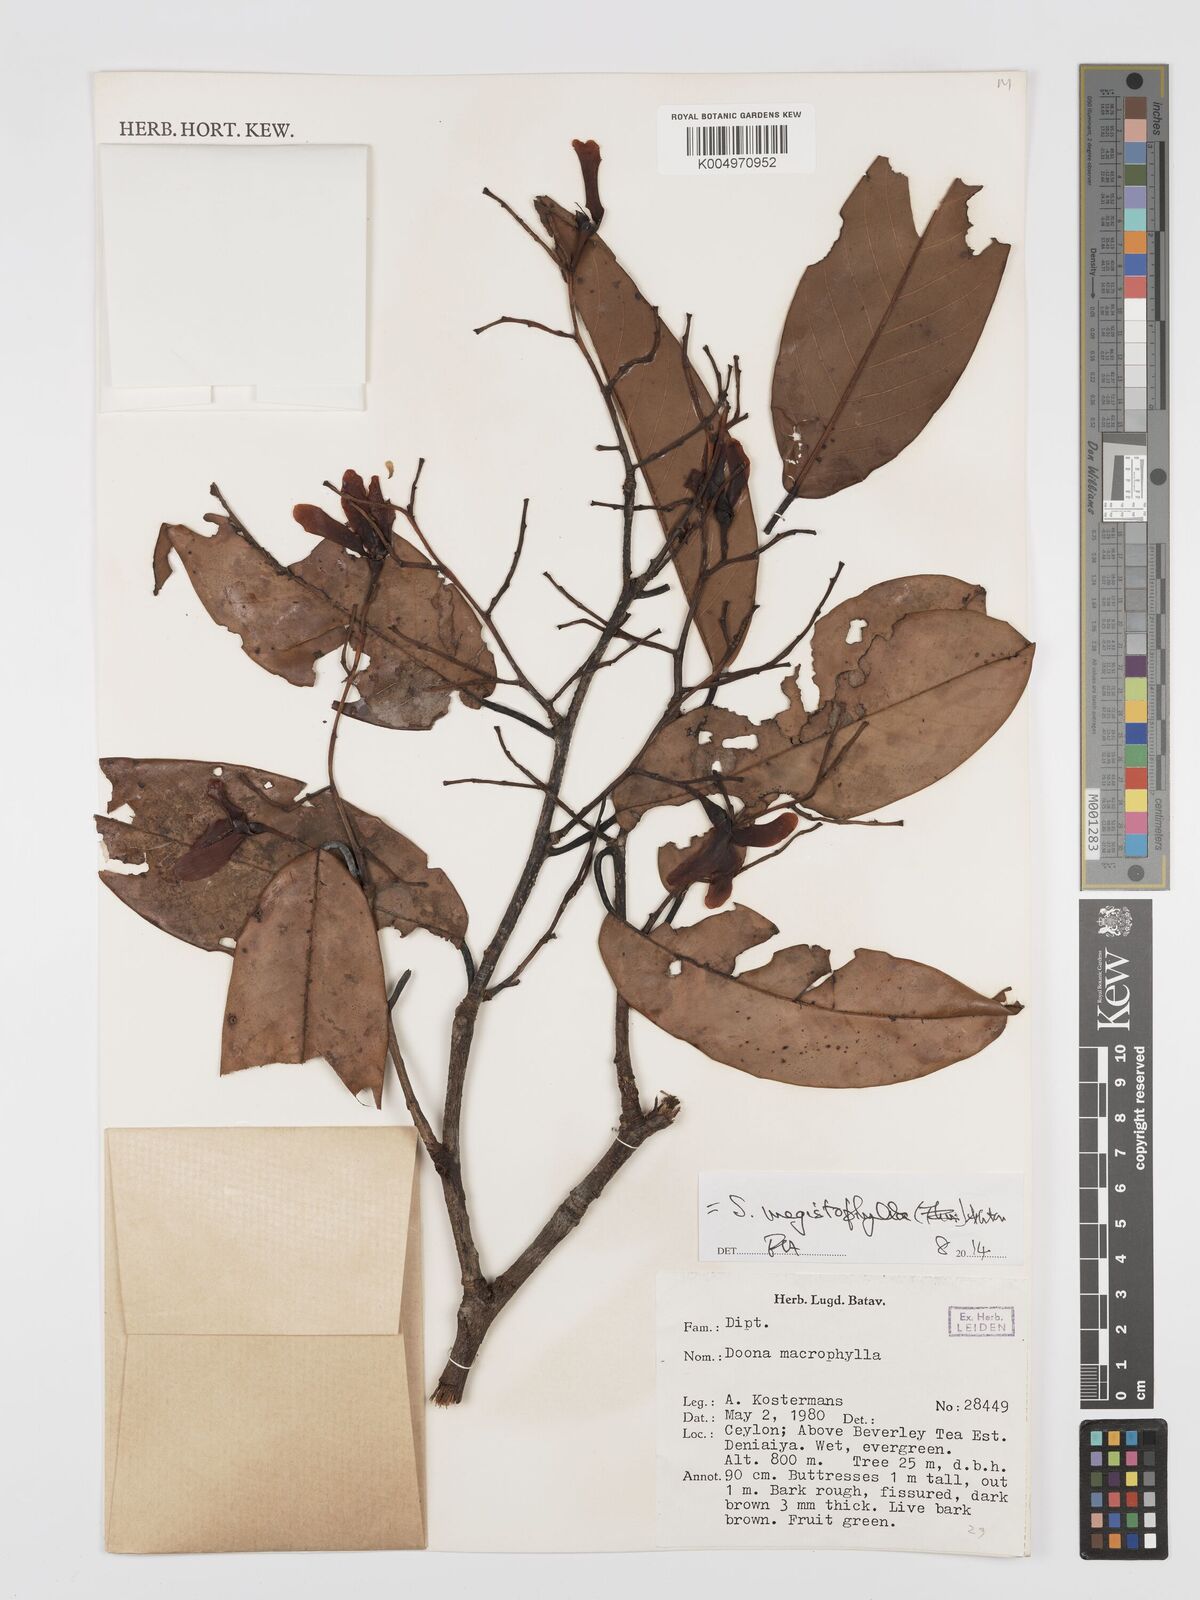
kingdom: Plantae
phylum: Tracheophyta
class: Magnoliopsida
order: Malvales
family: Dipterocarpaceae
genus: Doona
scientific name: Doona macrophylla
